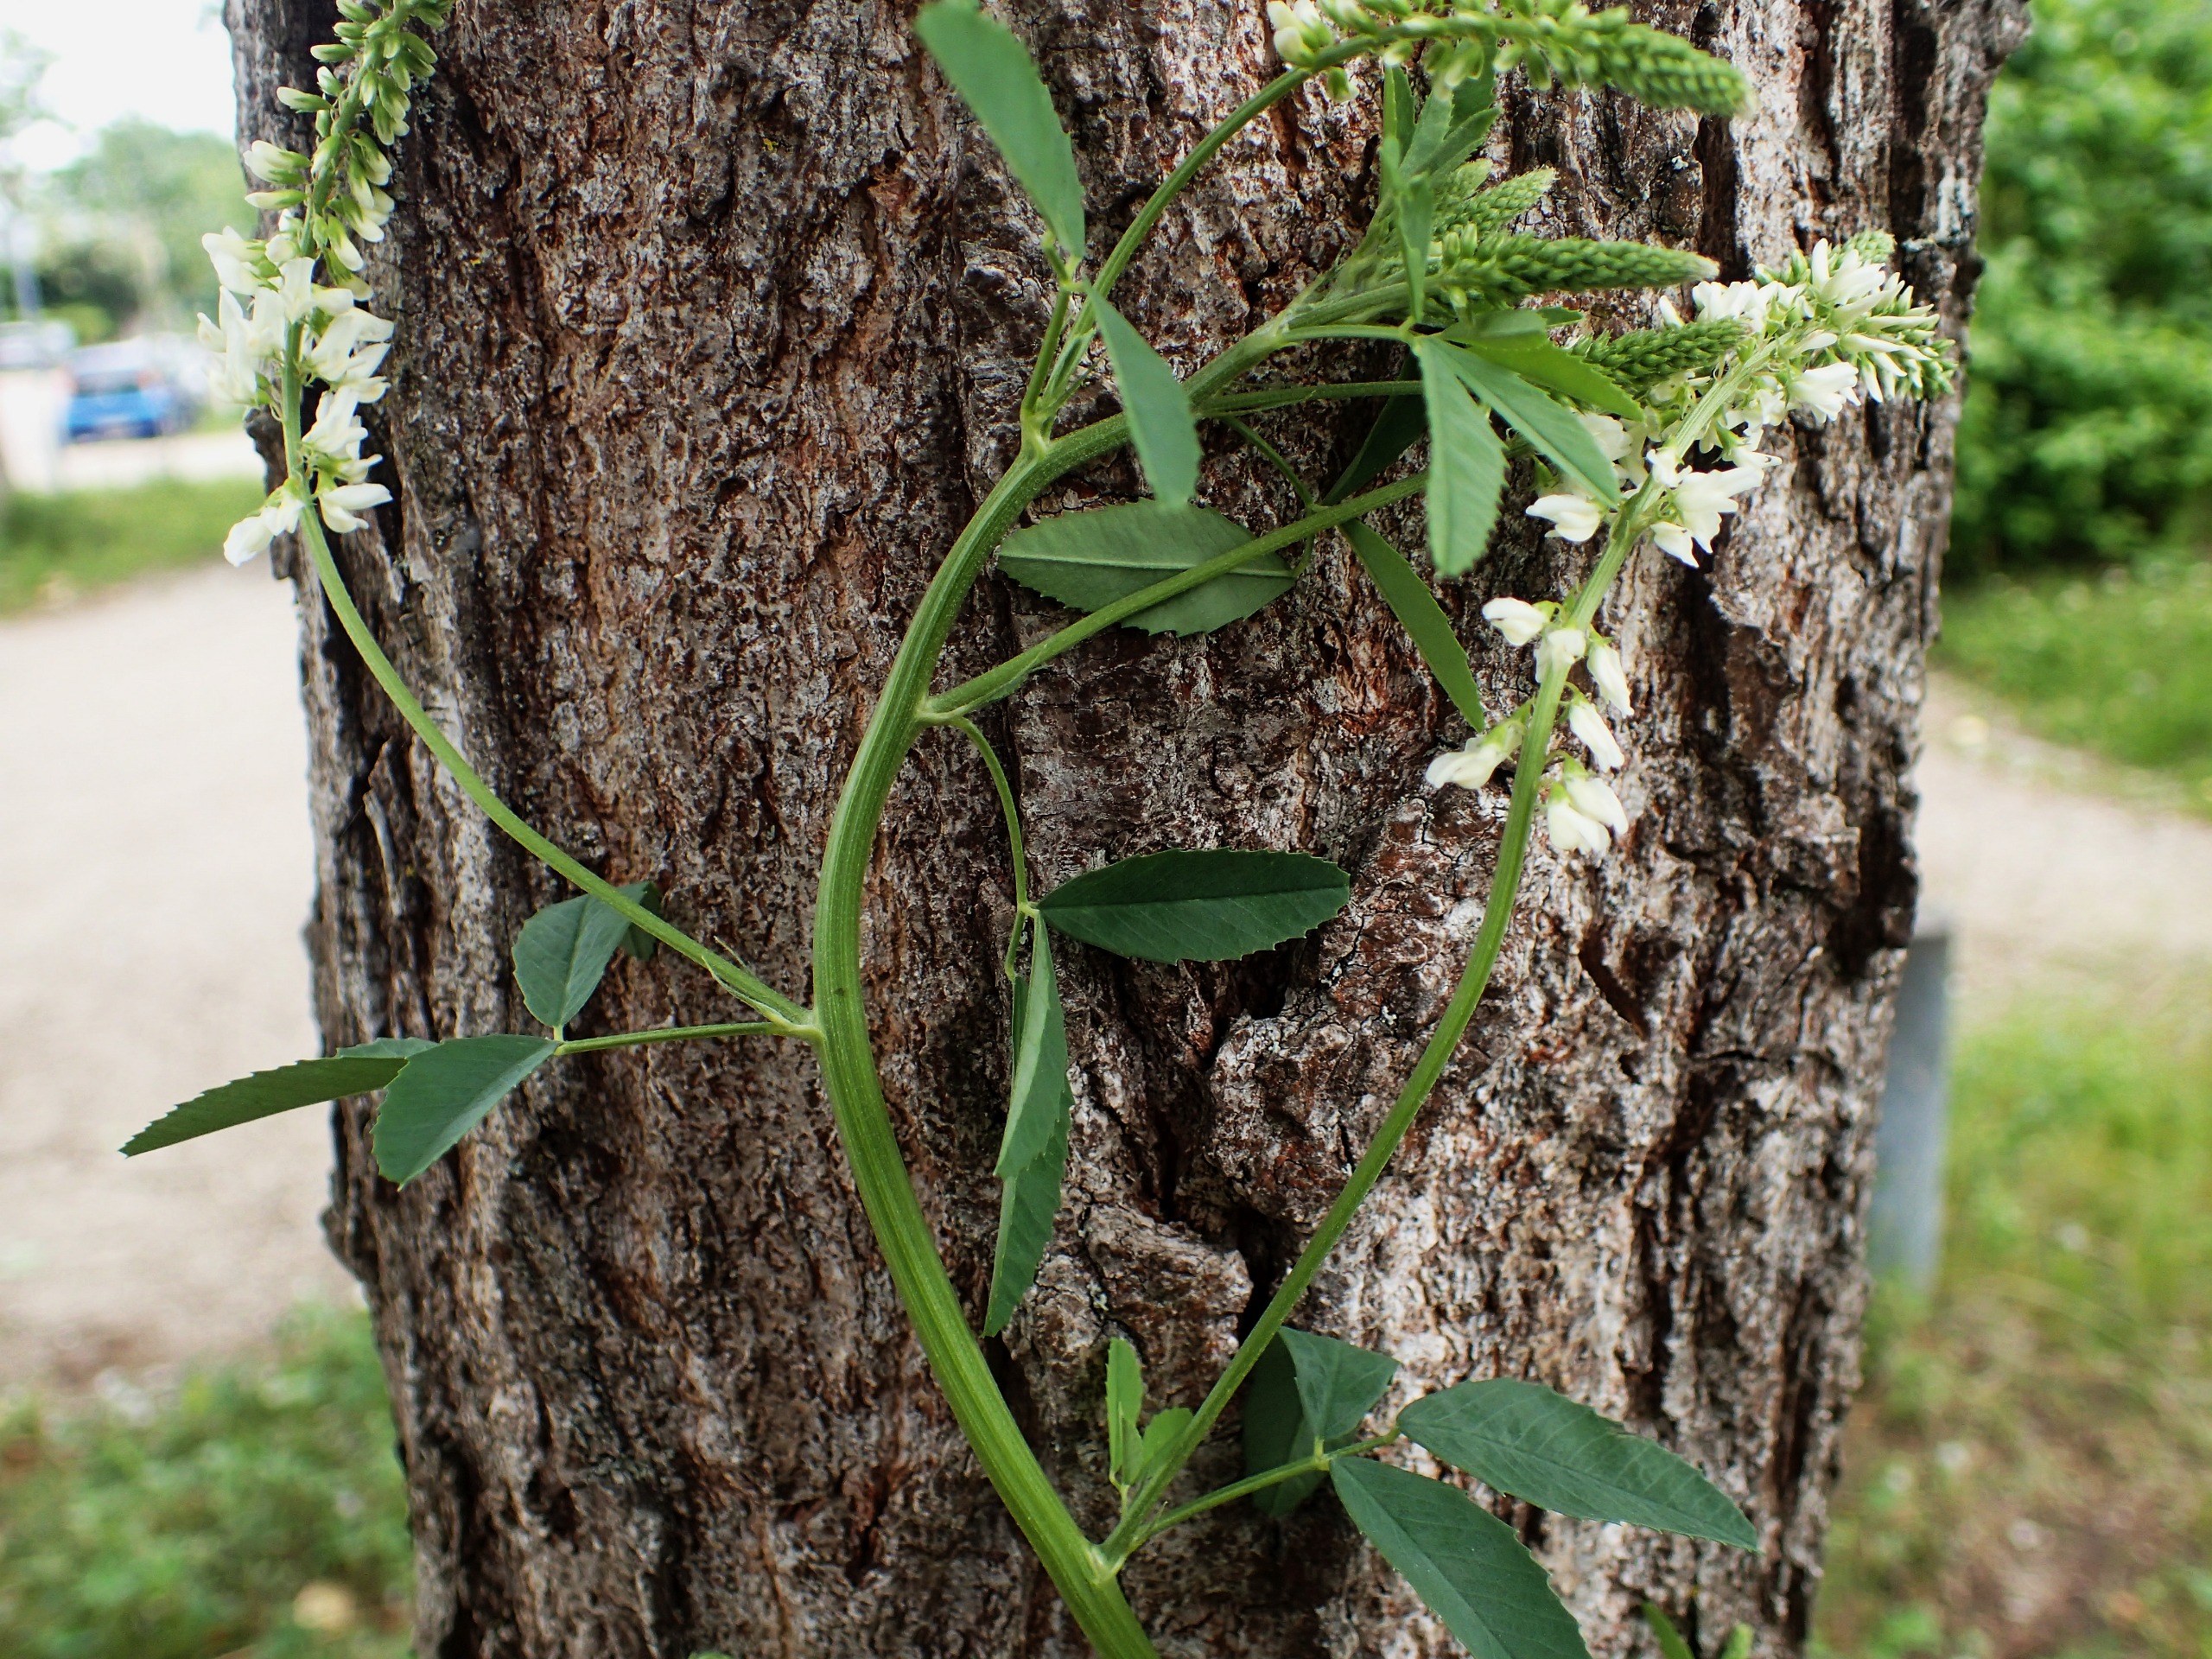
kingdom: Plantae
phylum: Tracheophyta
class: Magnoliopsida
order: Fabales
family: Fabaceae
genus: Melilotus
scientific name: Melilotus albus
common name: Hvid stenkløver
